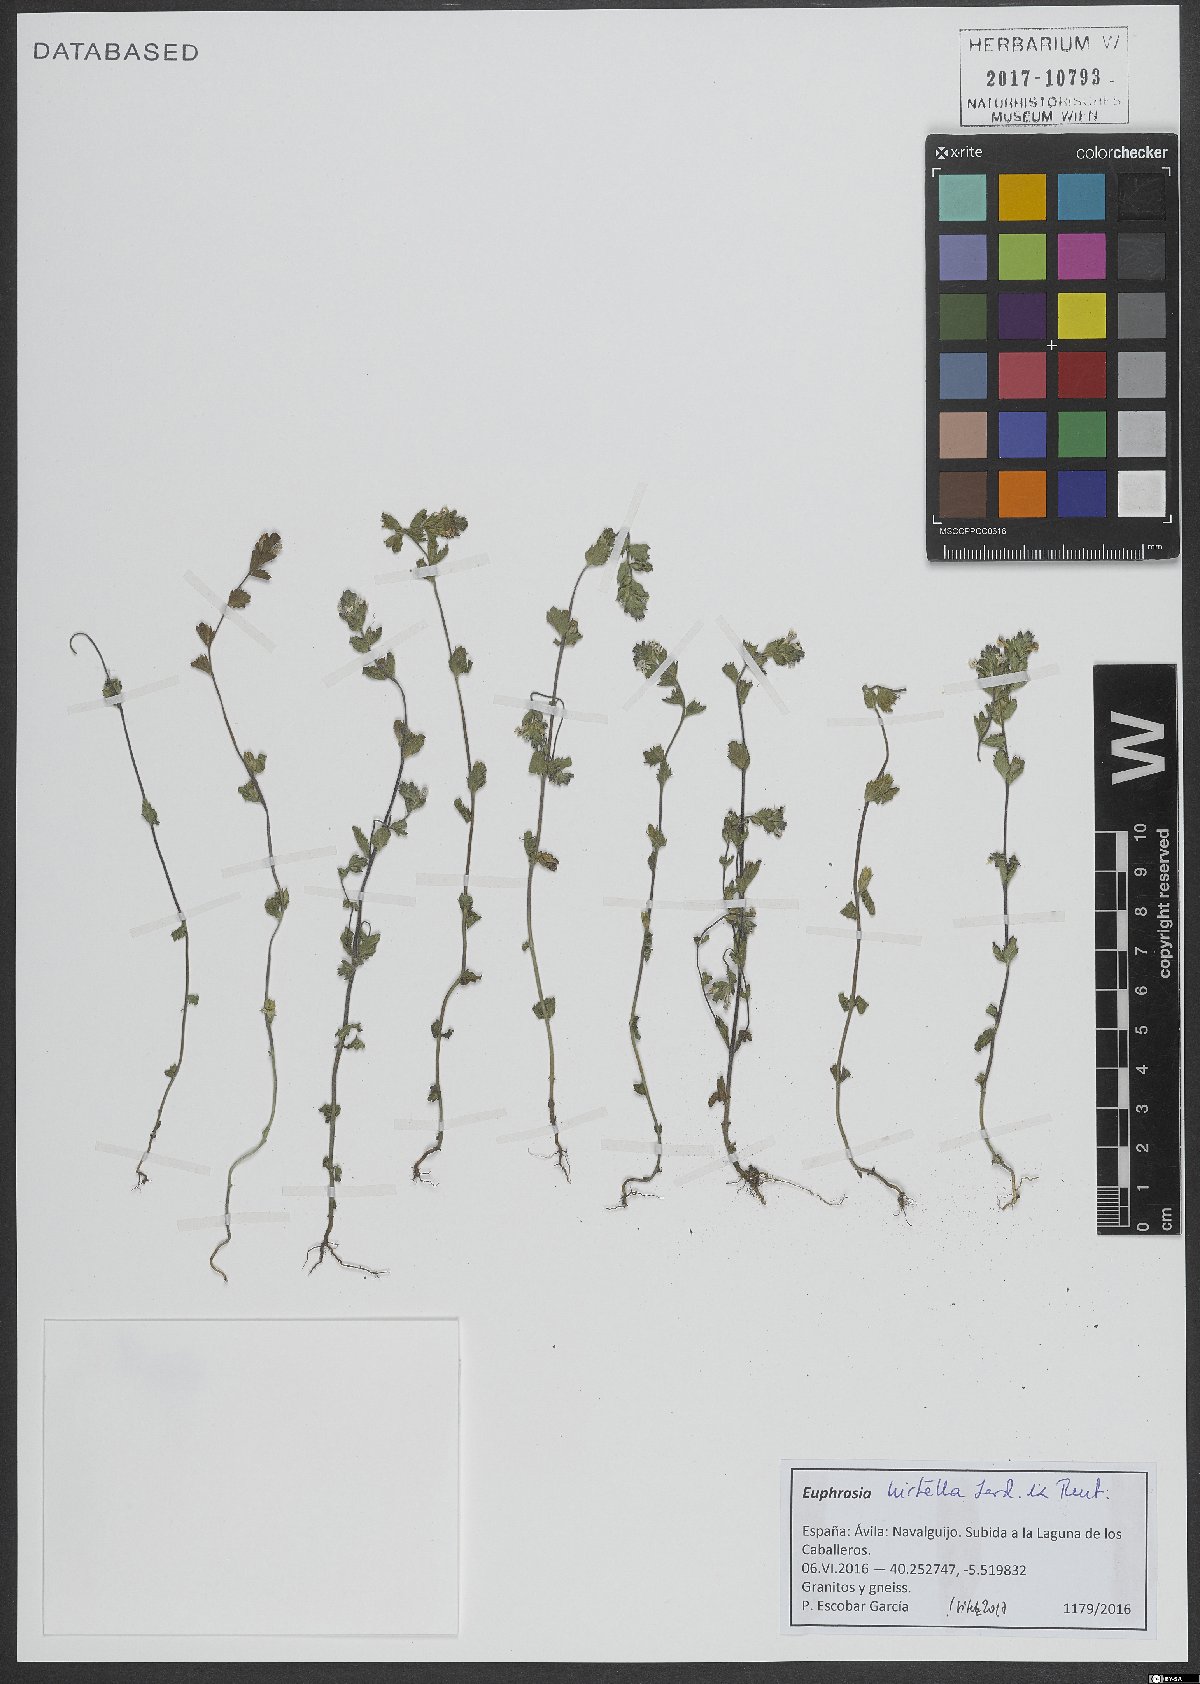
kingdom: Plantae
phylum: Tracheophyta
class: Magnoliopsida
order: Lamiales
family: Orobanchaceae
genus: Euphrasia
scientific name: Euphrasia hirtella
